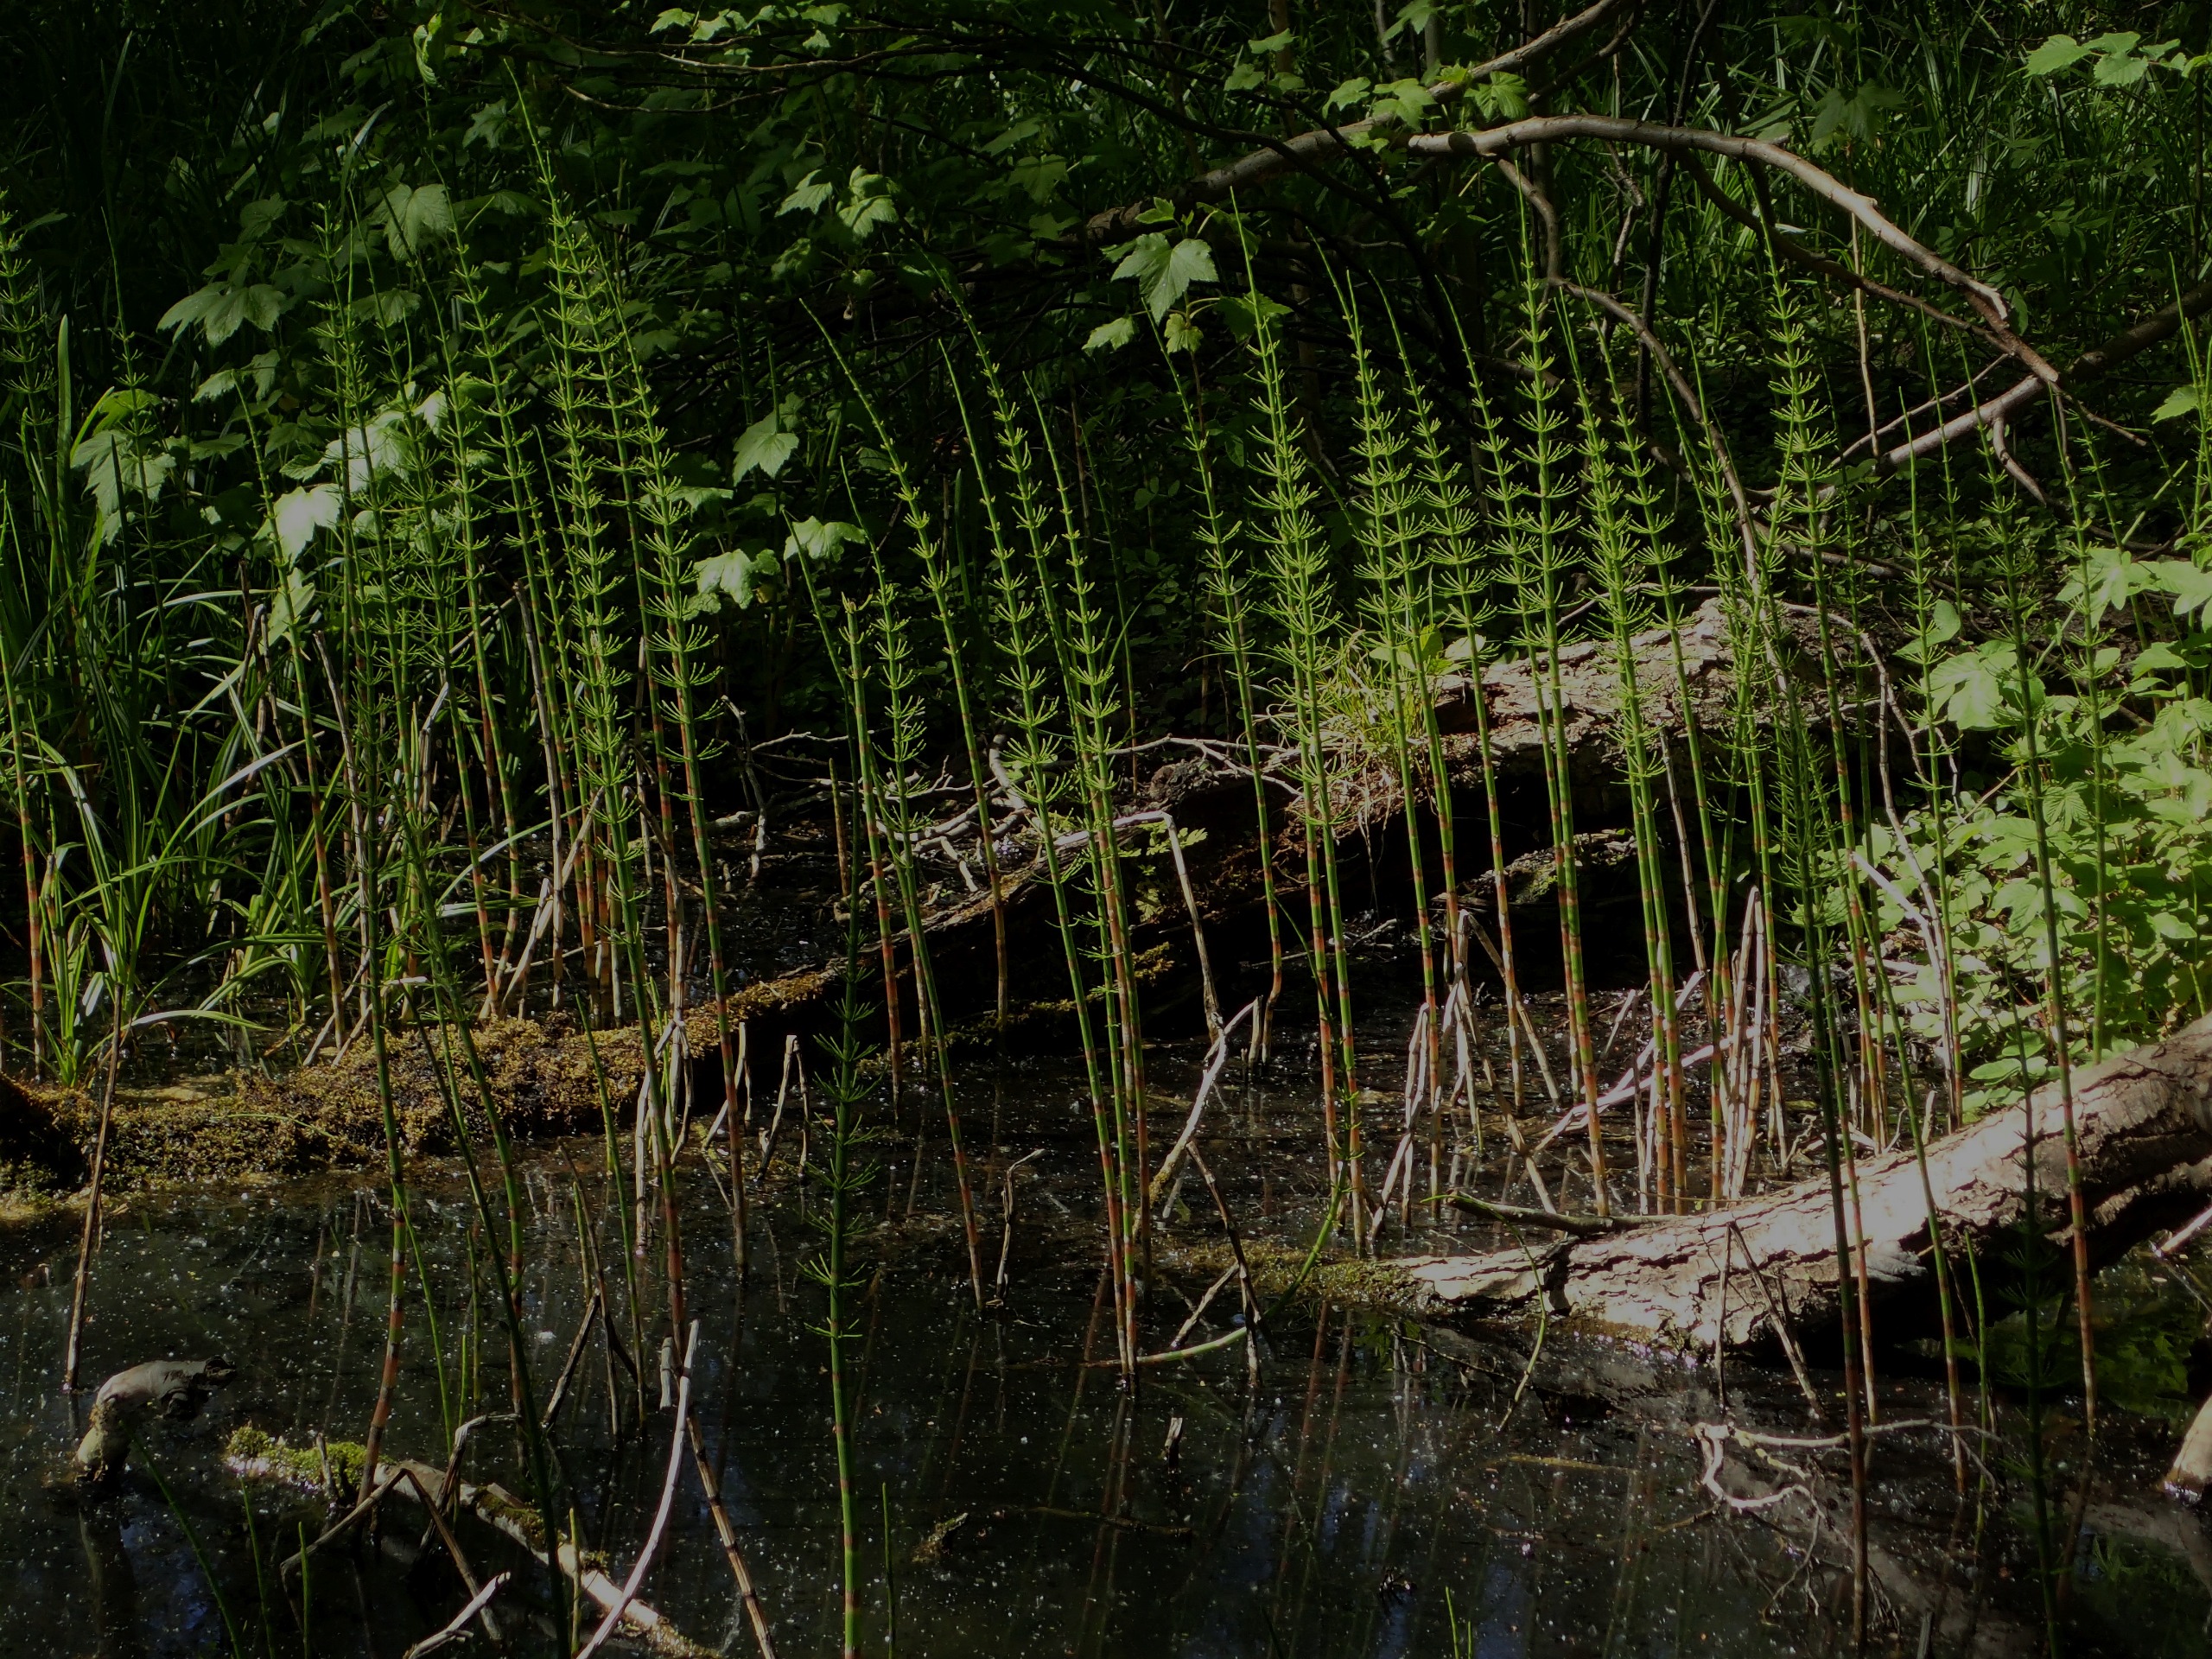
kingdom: Plantae
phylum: Tracheophyta
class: Polypodiopsida
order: Equisetales
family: Equisetaceae
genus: Equisetum
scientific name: Equisetum fluviatile
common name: Dynd-padderok
